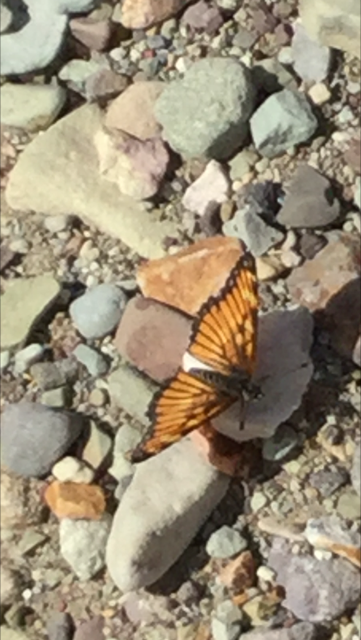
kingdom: Animalia
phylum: Arthropoda
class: Insecta
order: Lepidoptera
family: Nymphalidae
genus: Thessalia
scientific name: Thessalia theona
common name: Theona Checkerspot
